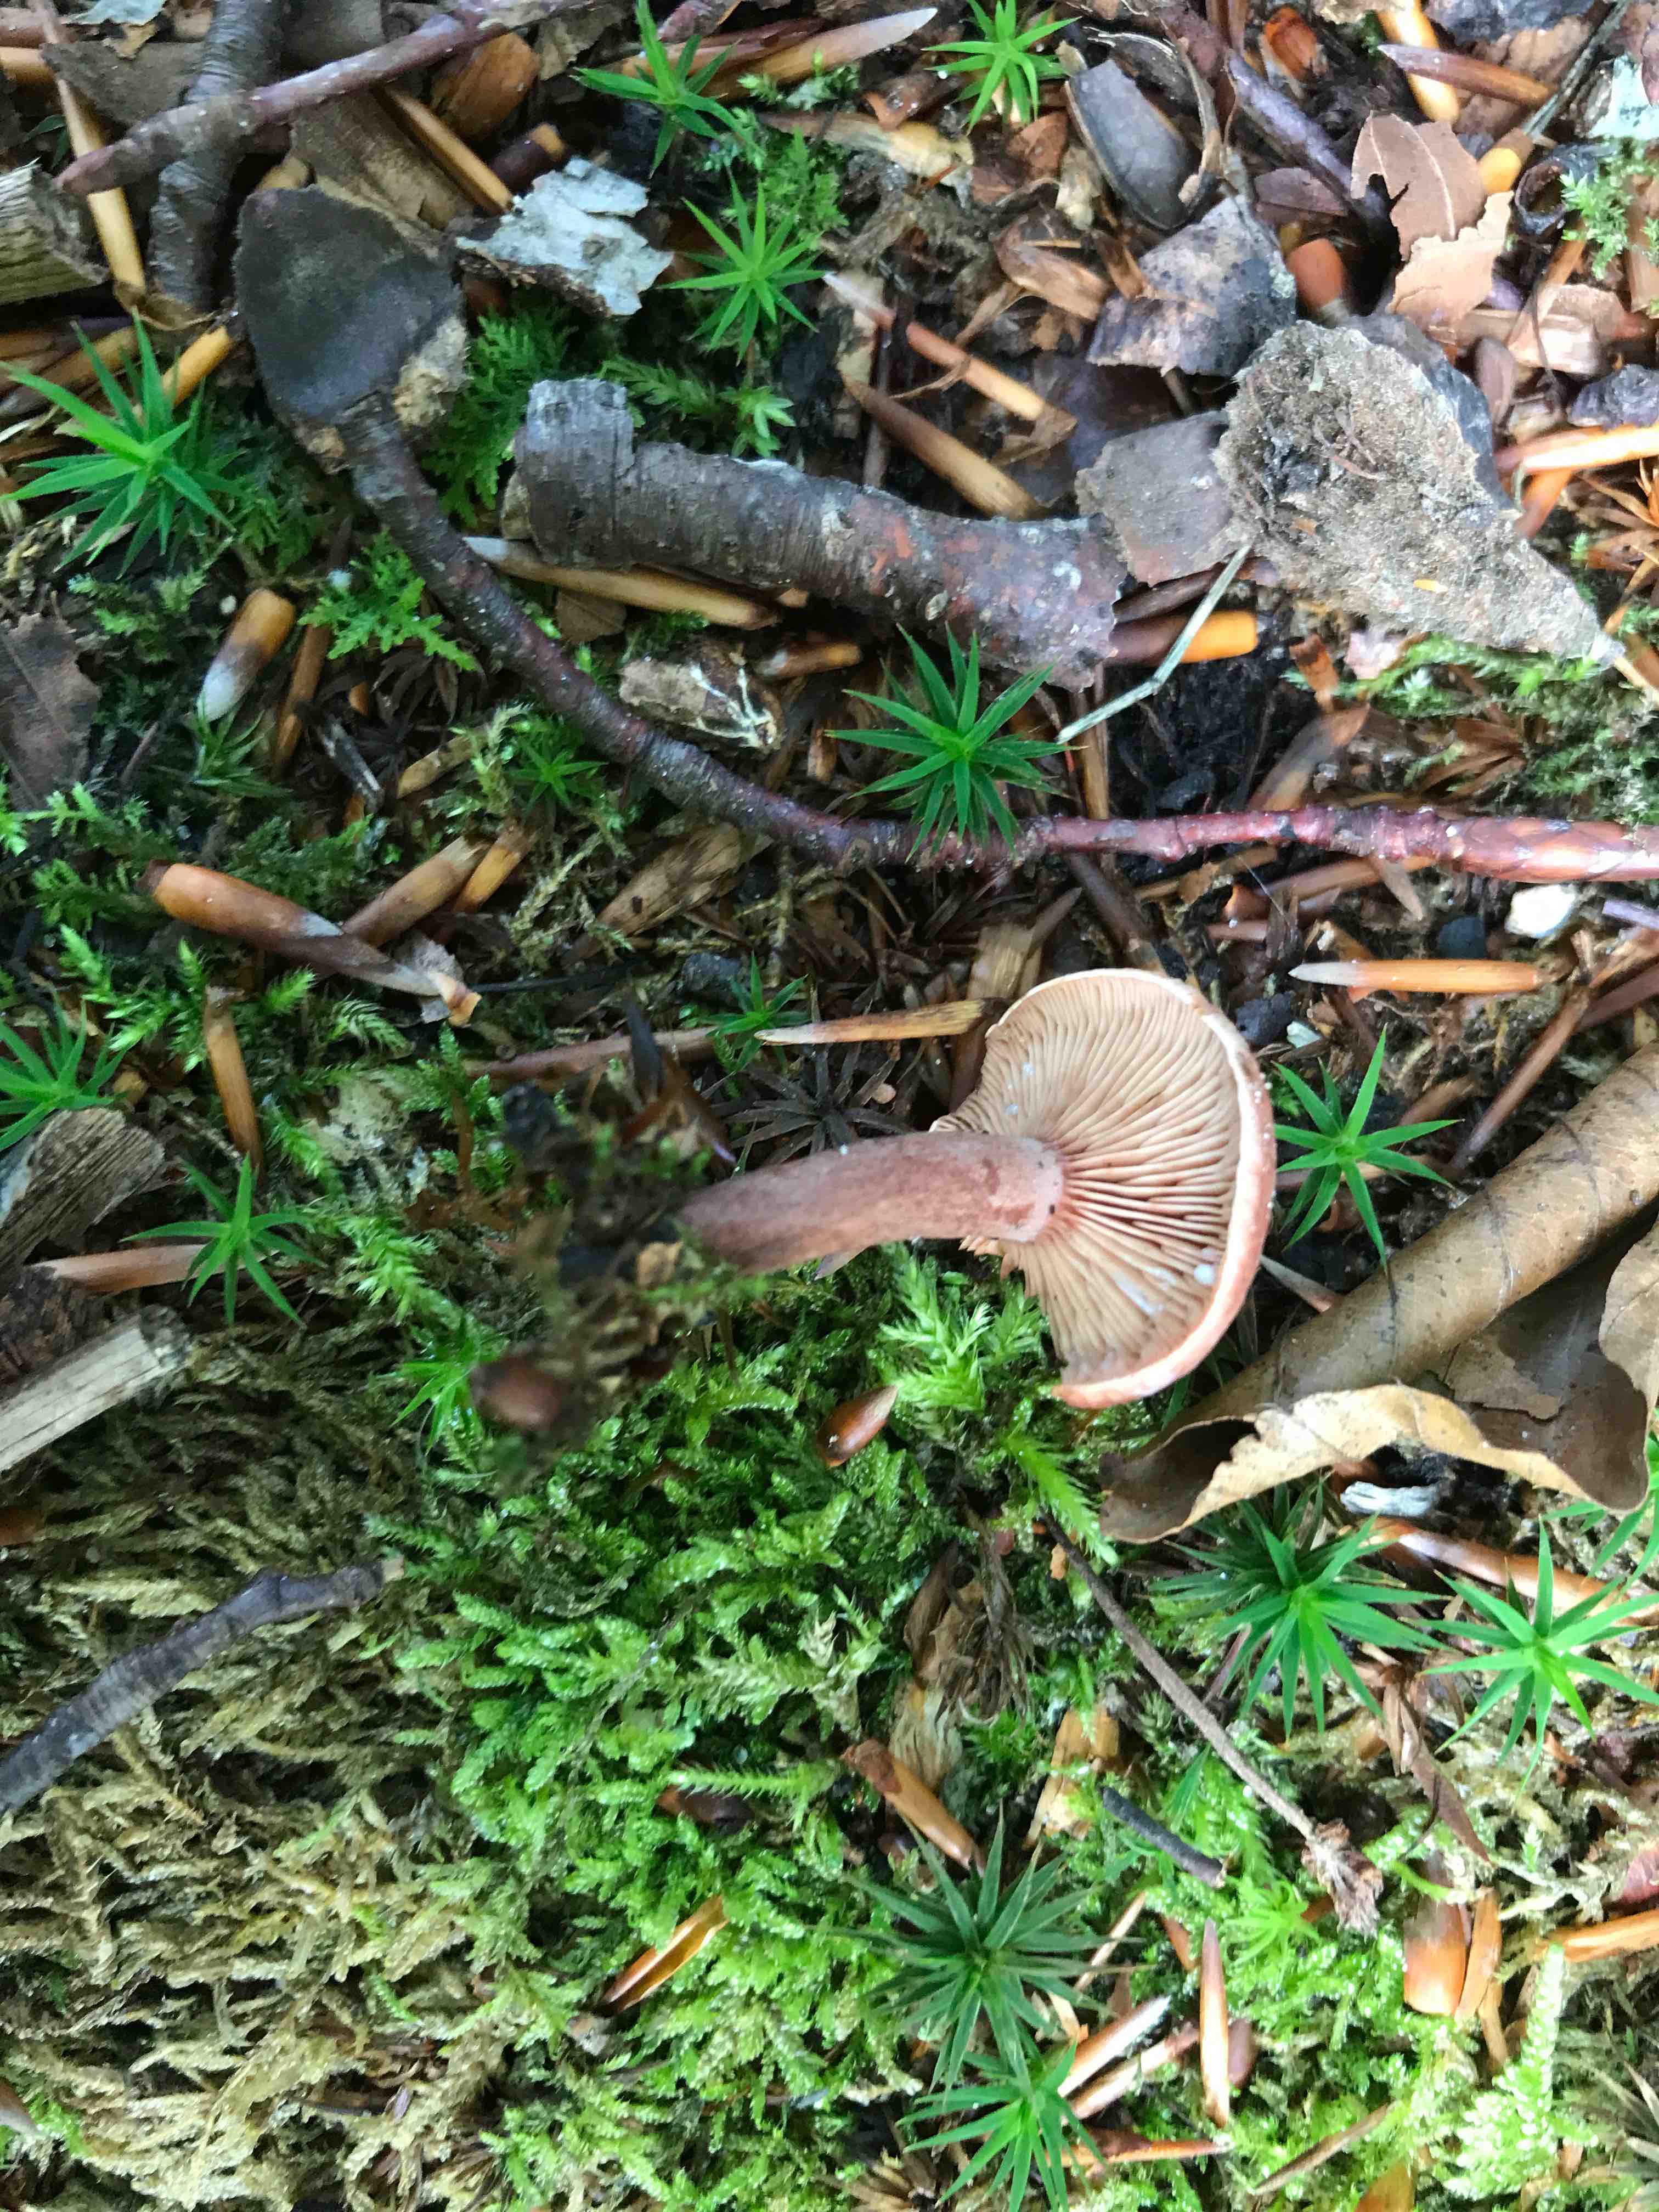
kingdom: Fungi
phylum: Basidiomycota
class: Agaricomycetes
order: Russulales
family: Russulaceae
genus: Lactarius
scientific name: Lactarius subdulcis
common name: sødlig mælkehat
